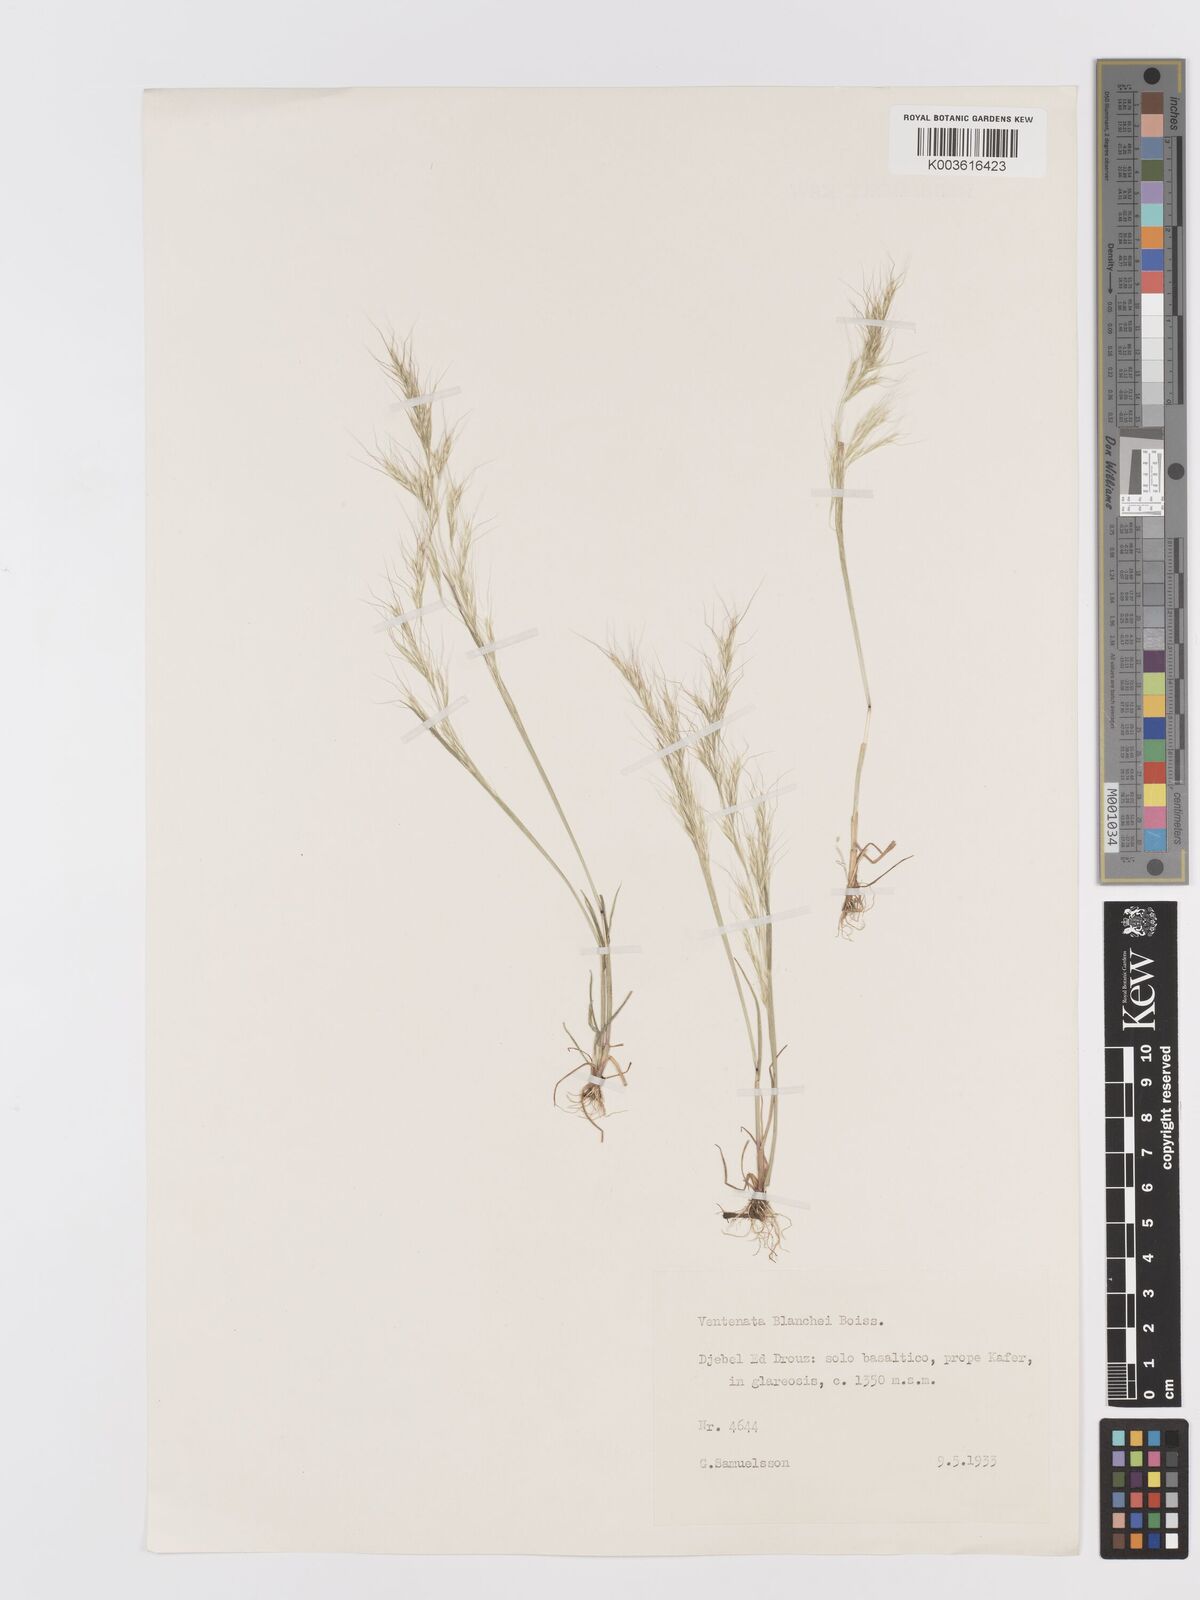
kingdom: Plantae
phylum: Tracheophyta
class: Liliopsida
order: Poales
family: Poaceae
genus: Ventenata
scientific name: Ventenata blanchei
